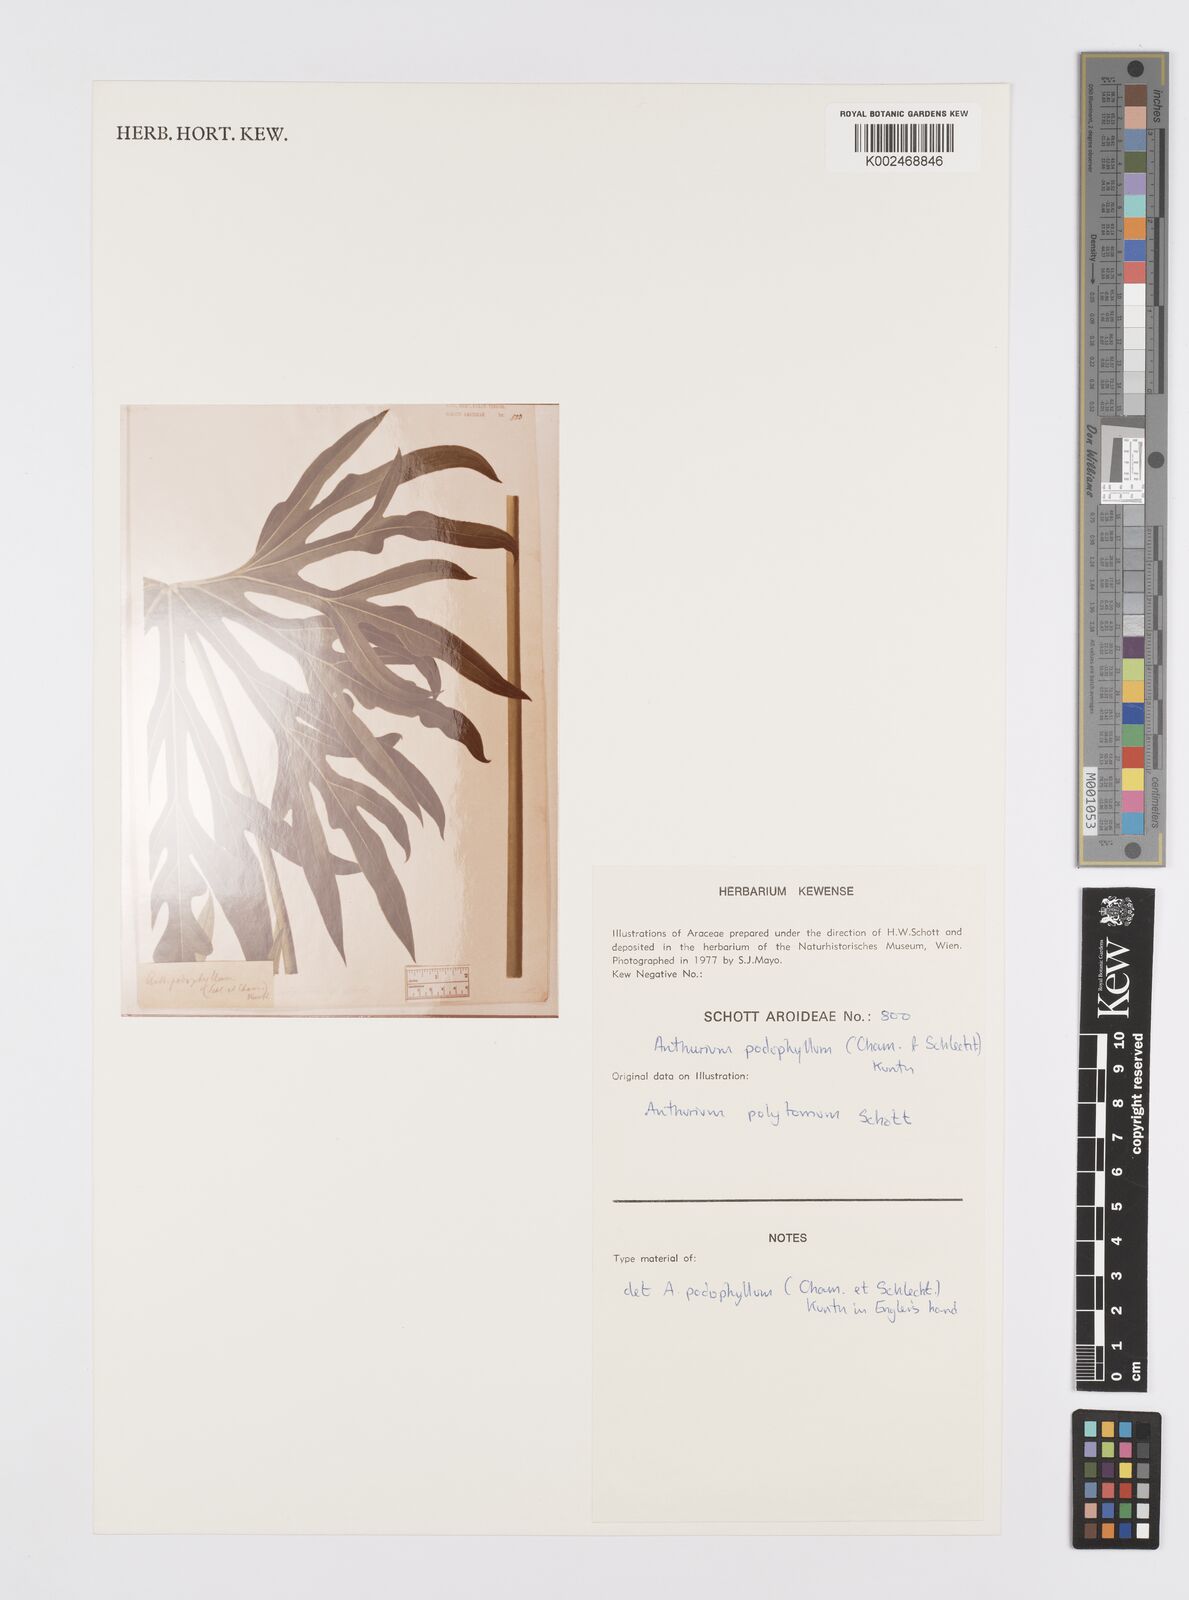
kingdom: Plantae
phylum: Tracheophyta
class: Liliopsida
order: Alismatales
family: Araceae
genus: Anthurium
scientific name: Anthurium podophyllum
